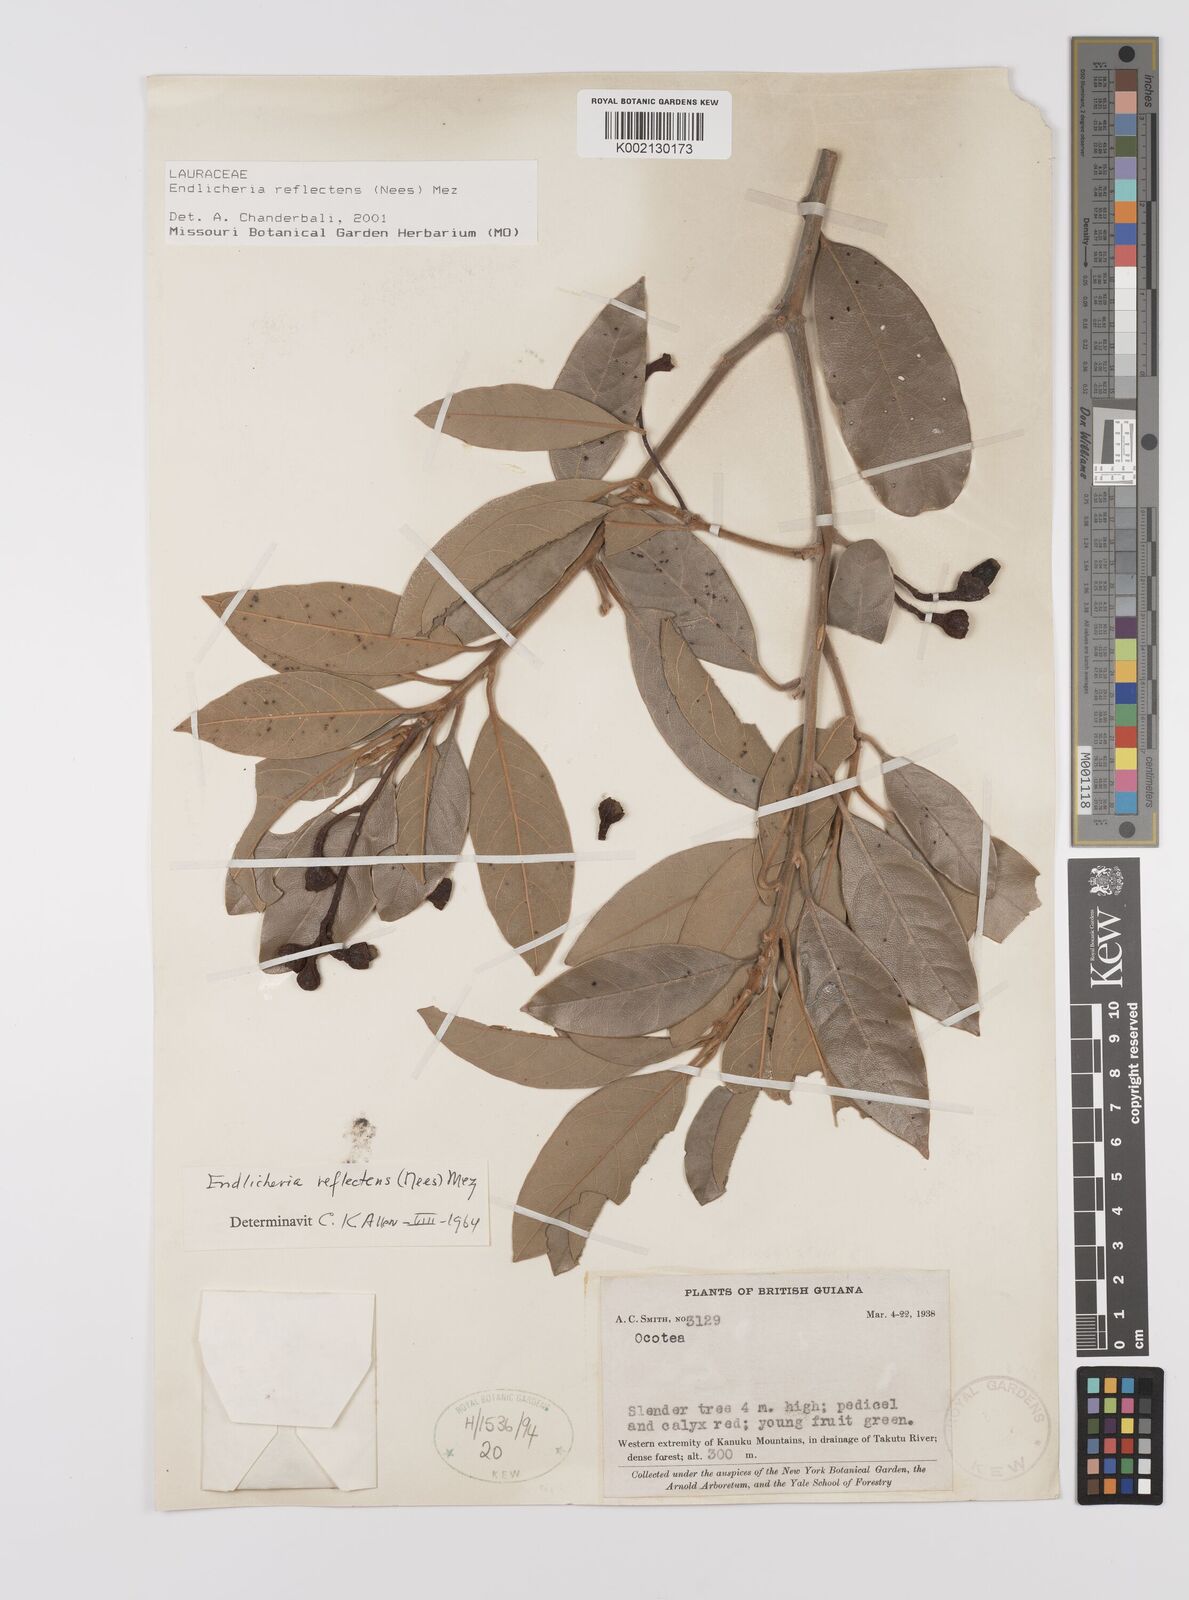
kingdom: Plantae
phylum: Tracheophyta
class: Magnoliopsida
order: Laurales
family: Lauraceae
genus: Endlicheria
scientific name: Endlicheria reflectens
